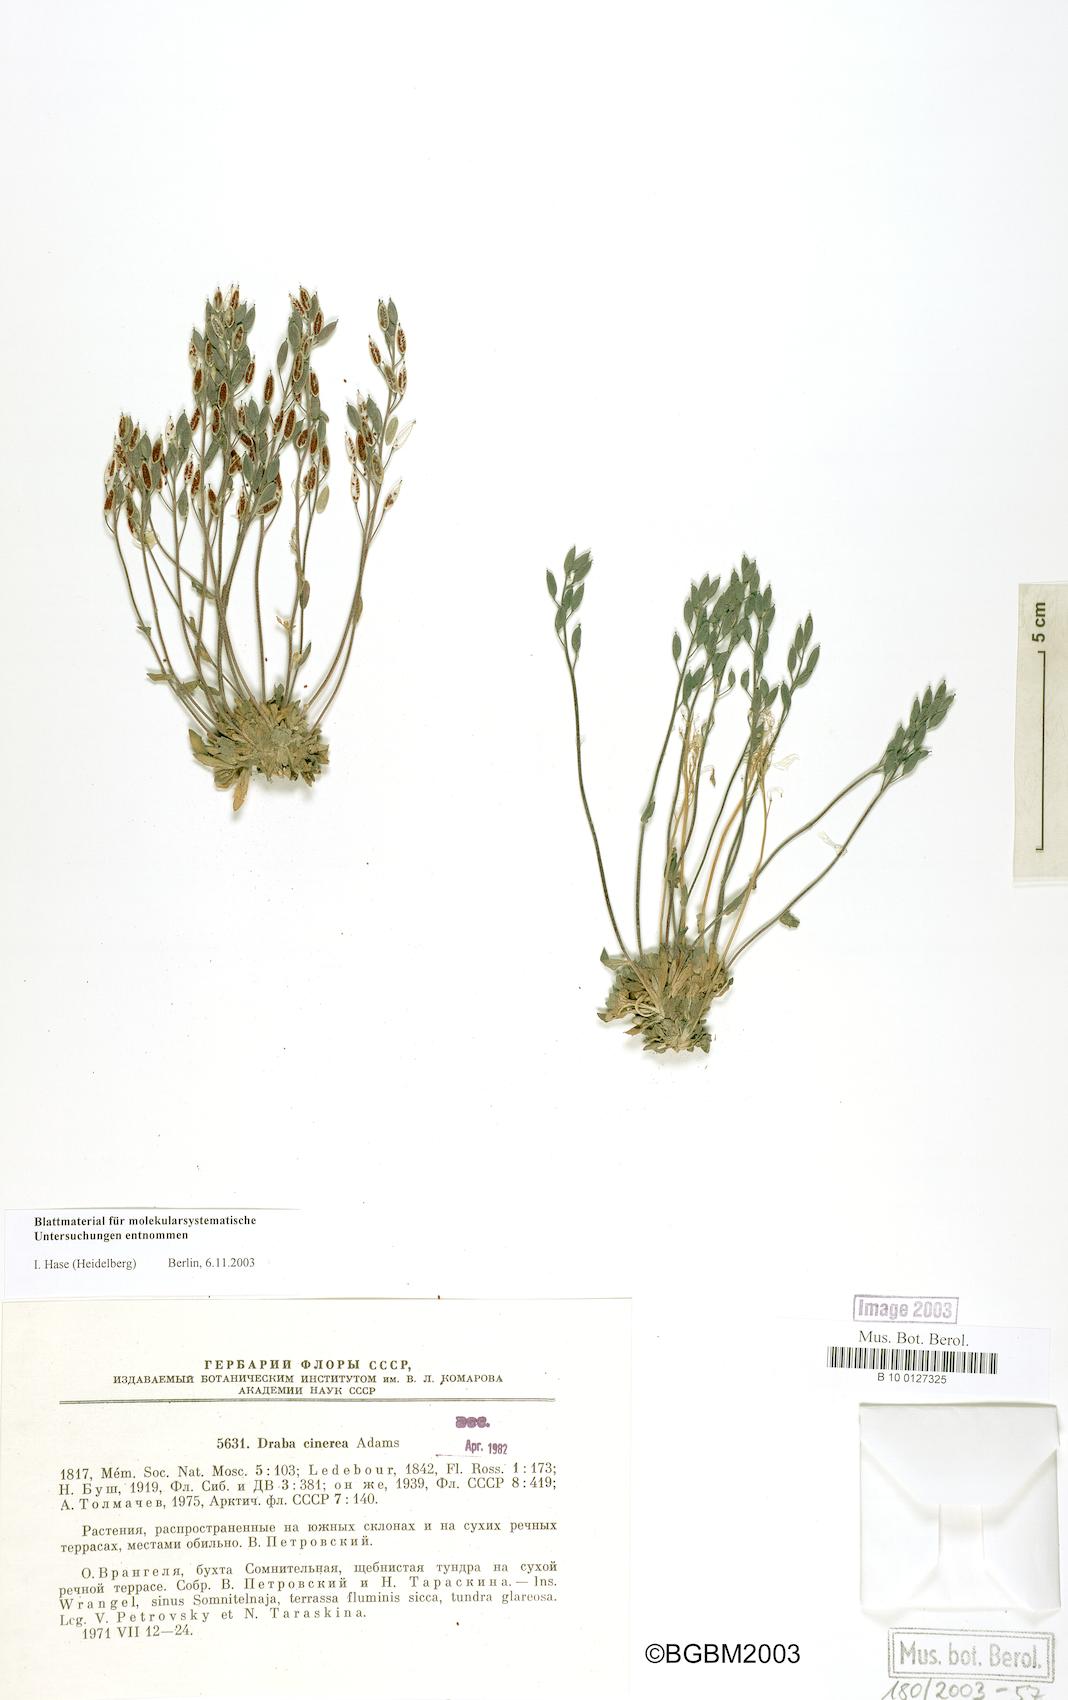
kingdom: Plantae
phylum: Tracheophyta
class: Magnoliopsida
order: Brassicales
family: Brassicaceae
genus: Draba
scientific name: Draba cinerea
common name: Ash-coloured whitlow-grass
